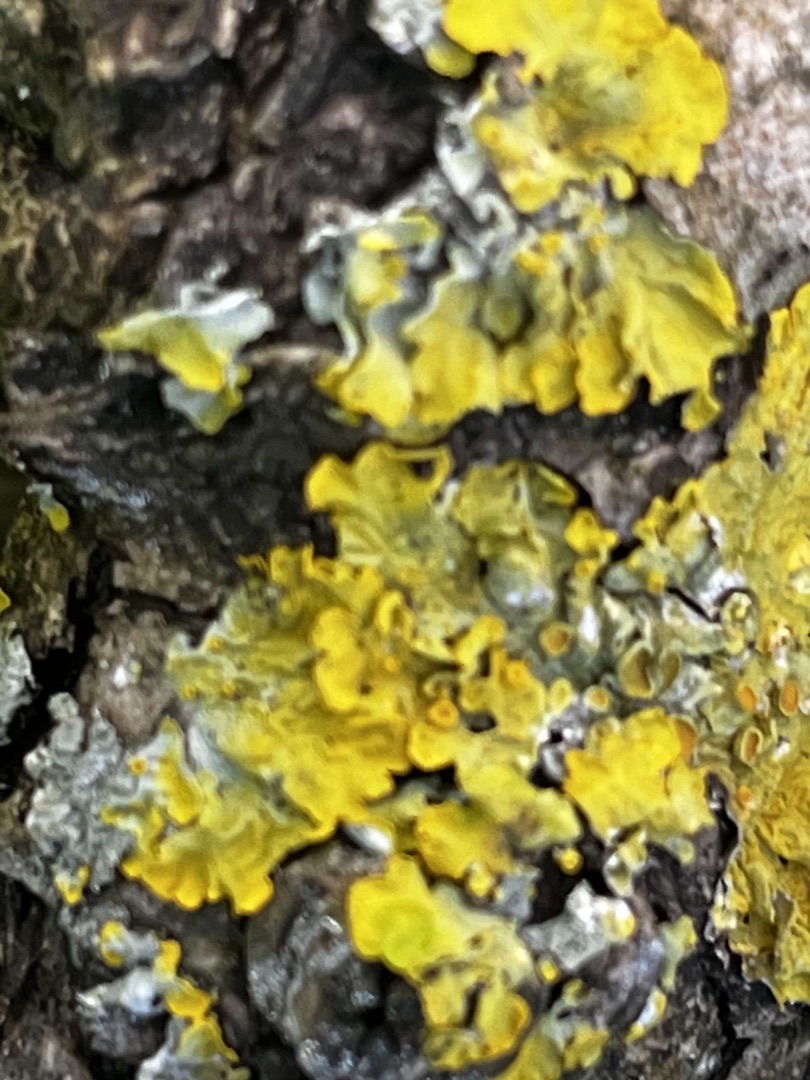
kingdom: Fungi
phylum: Ascomycota
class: Lecanoromycetes
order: Teloschistales
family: Teloschistaceae
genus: Xanthoria
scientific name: Xanthoria parietina
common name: Almindelig væggelav
